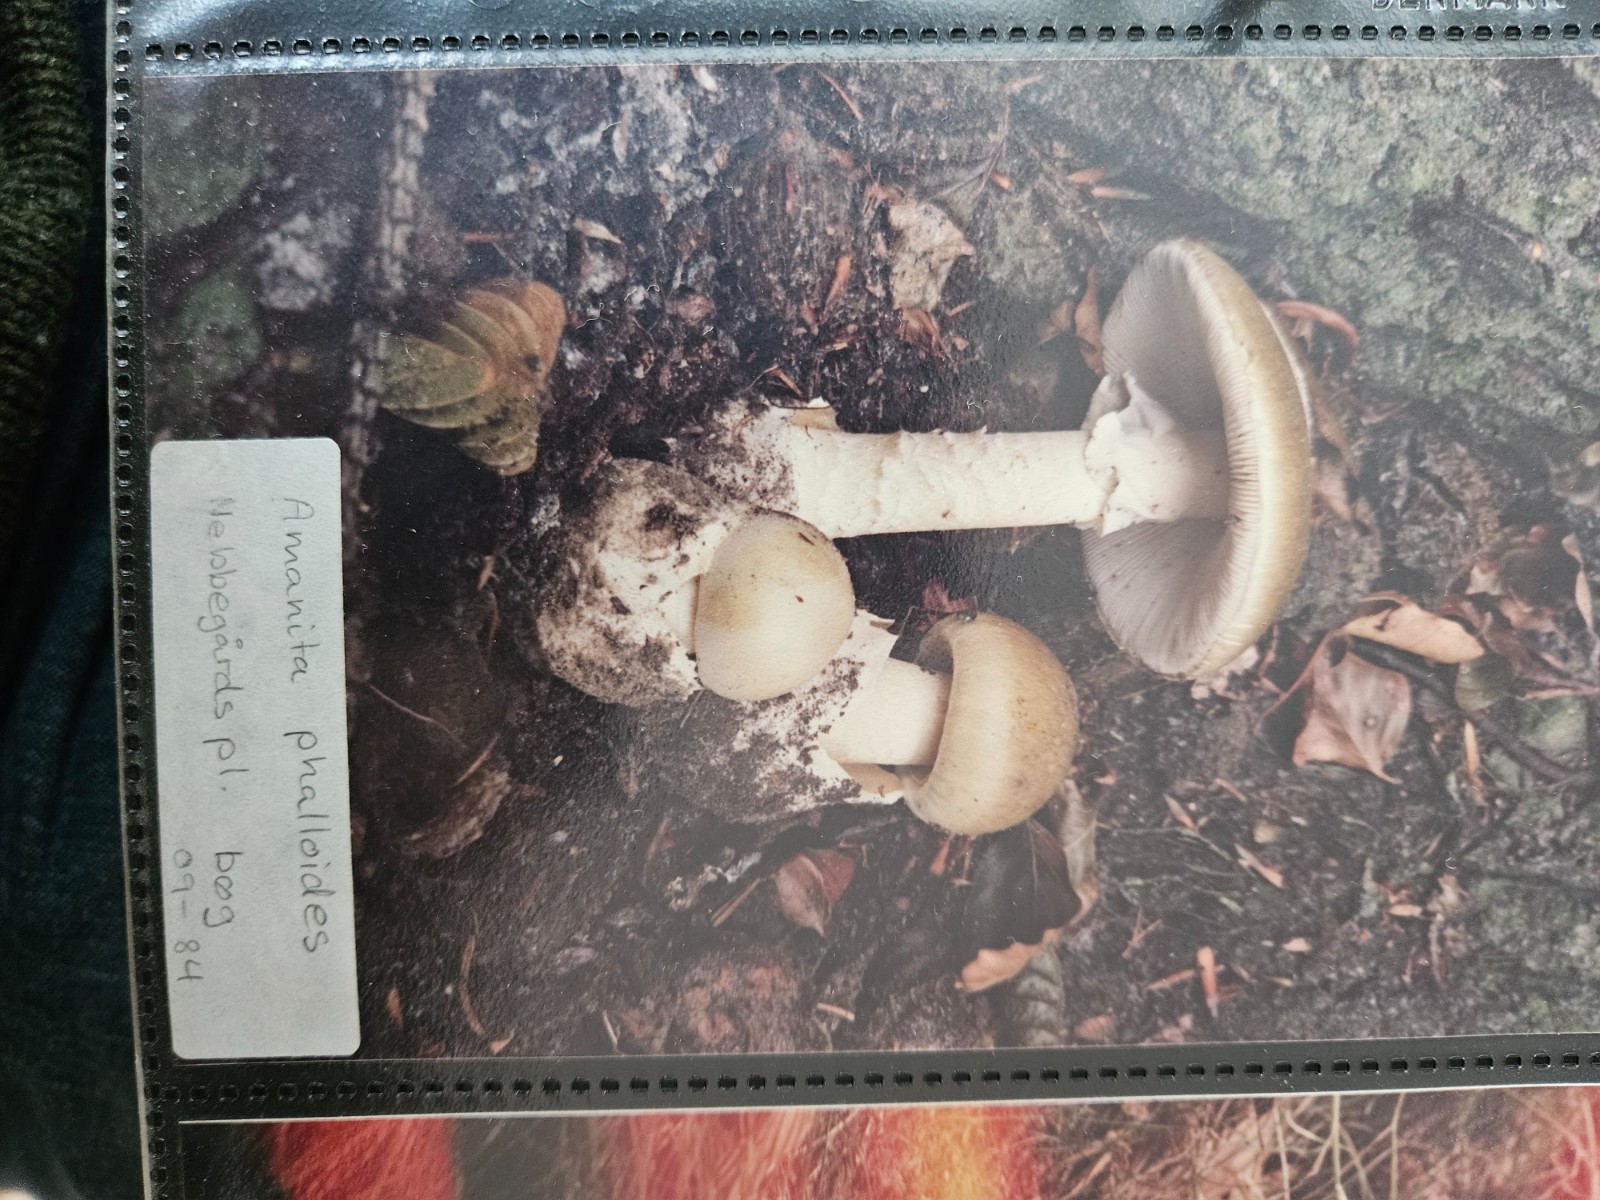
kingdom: Fungi
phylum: Basidiomycota
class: Agaricomycetes
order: Agaricales
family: Amanitaceae
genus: Amanita
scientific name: Amanita phalloides
